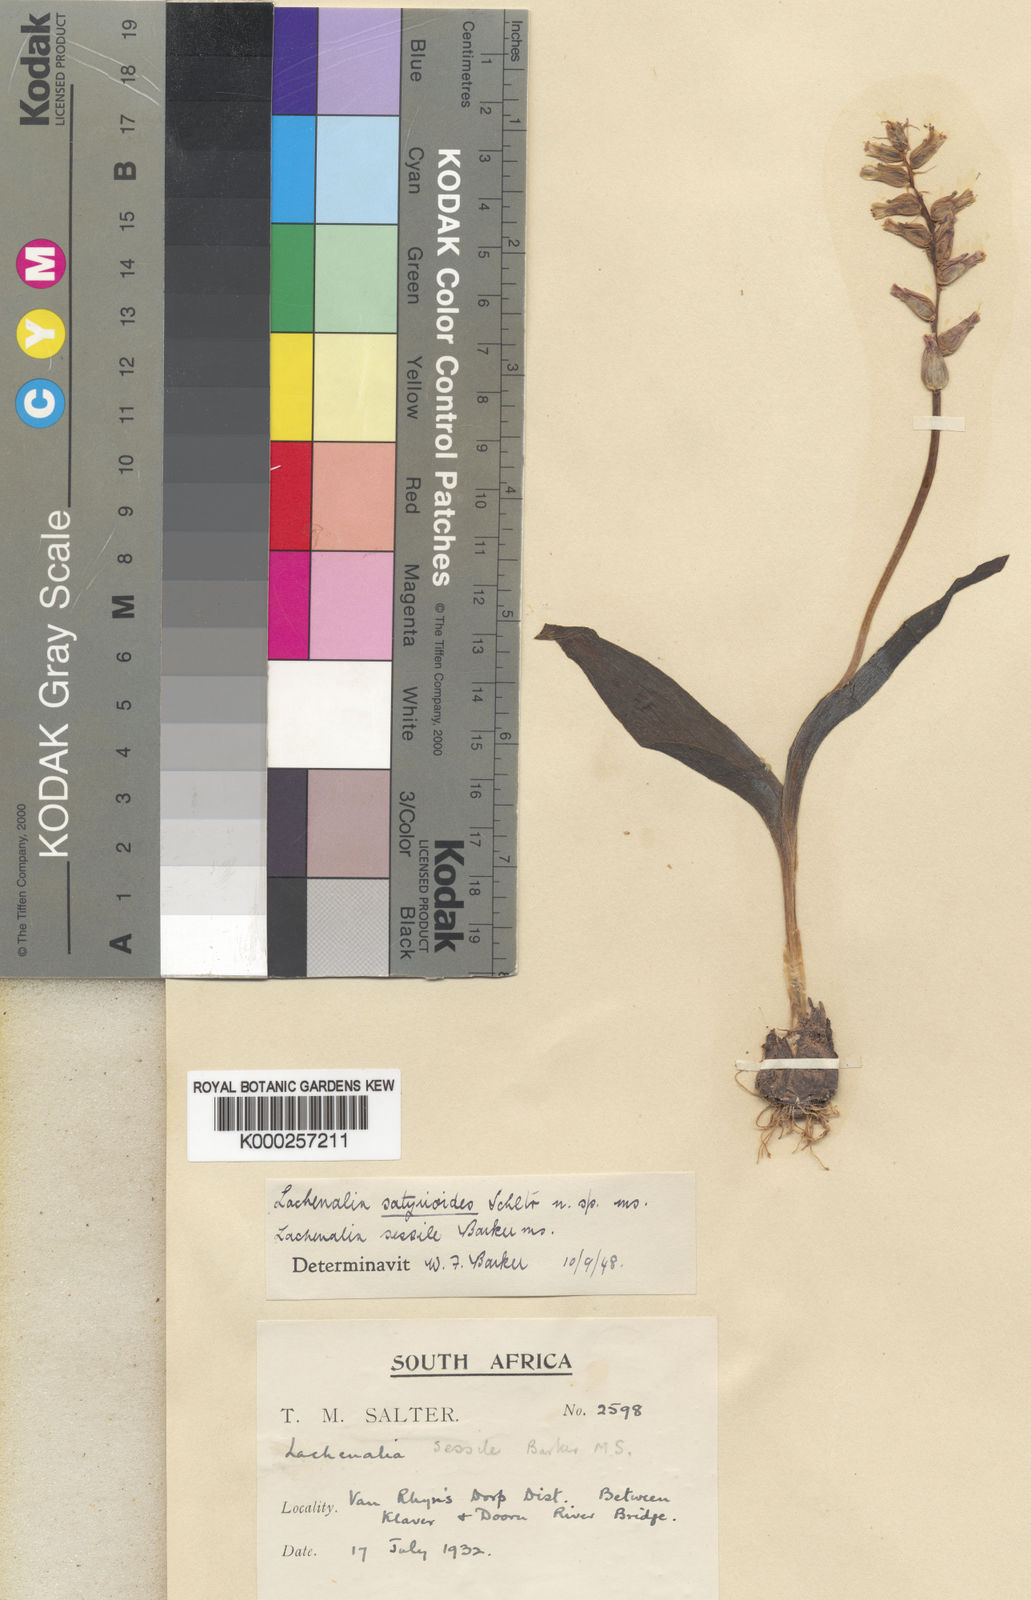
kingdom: Plantae
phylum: Tracheophyta
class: Liliopsida
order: Asparagales
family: Asparagaceae
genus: Lachenalia
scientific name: Lachenalia undulata
